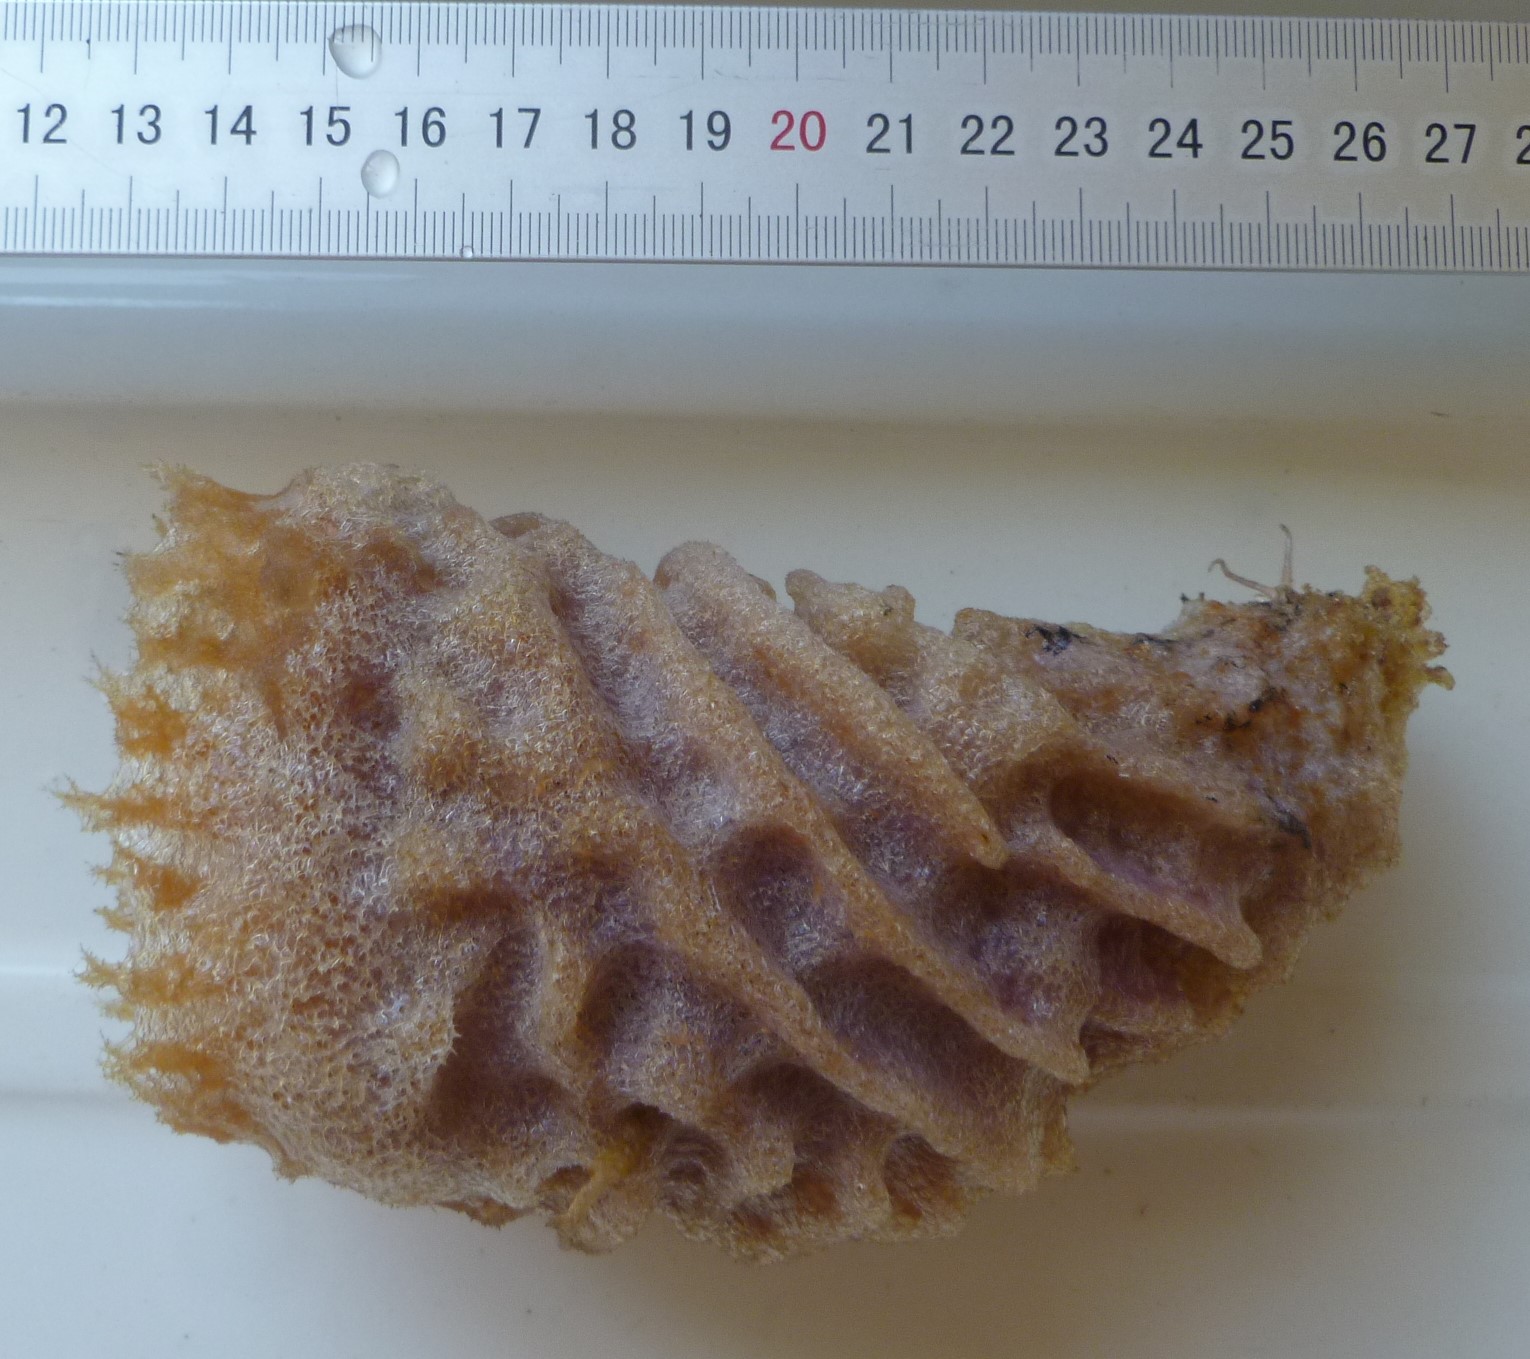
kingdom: Animalia
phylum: Porifera
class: Demospongiae
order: Haplosclerida
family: Callyspongiidae
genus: Callyspongia
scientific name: Callyspongia plicifera
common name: Azure vase sponge
